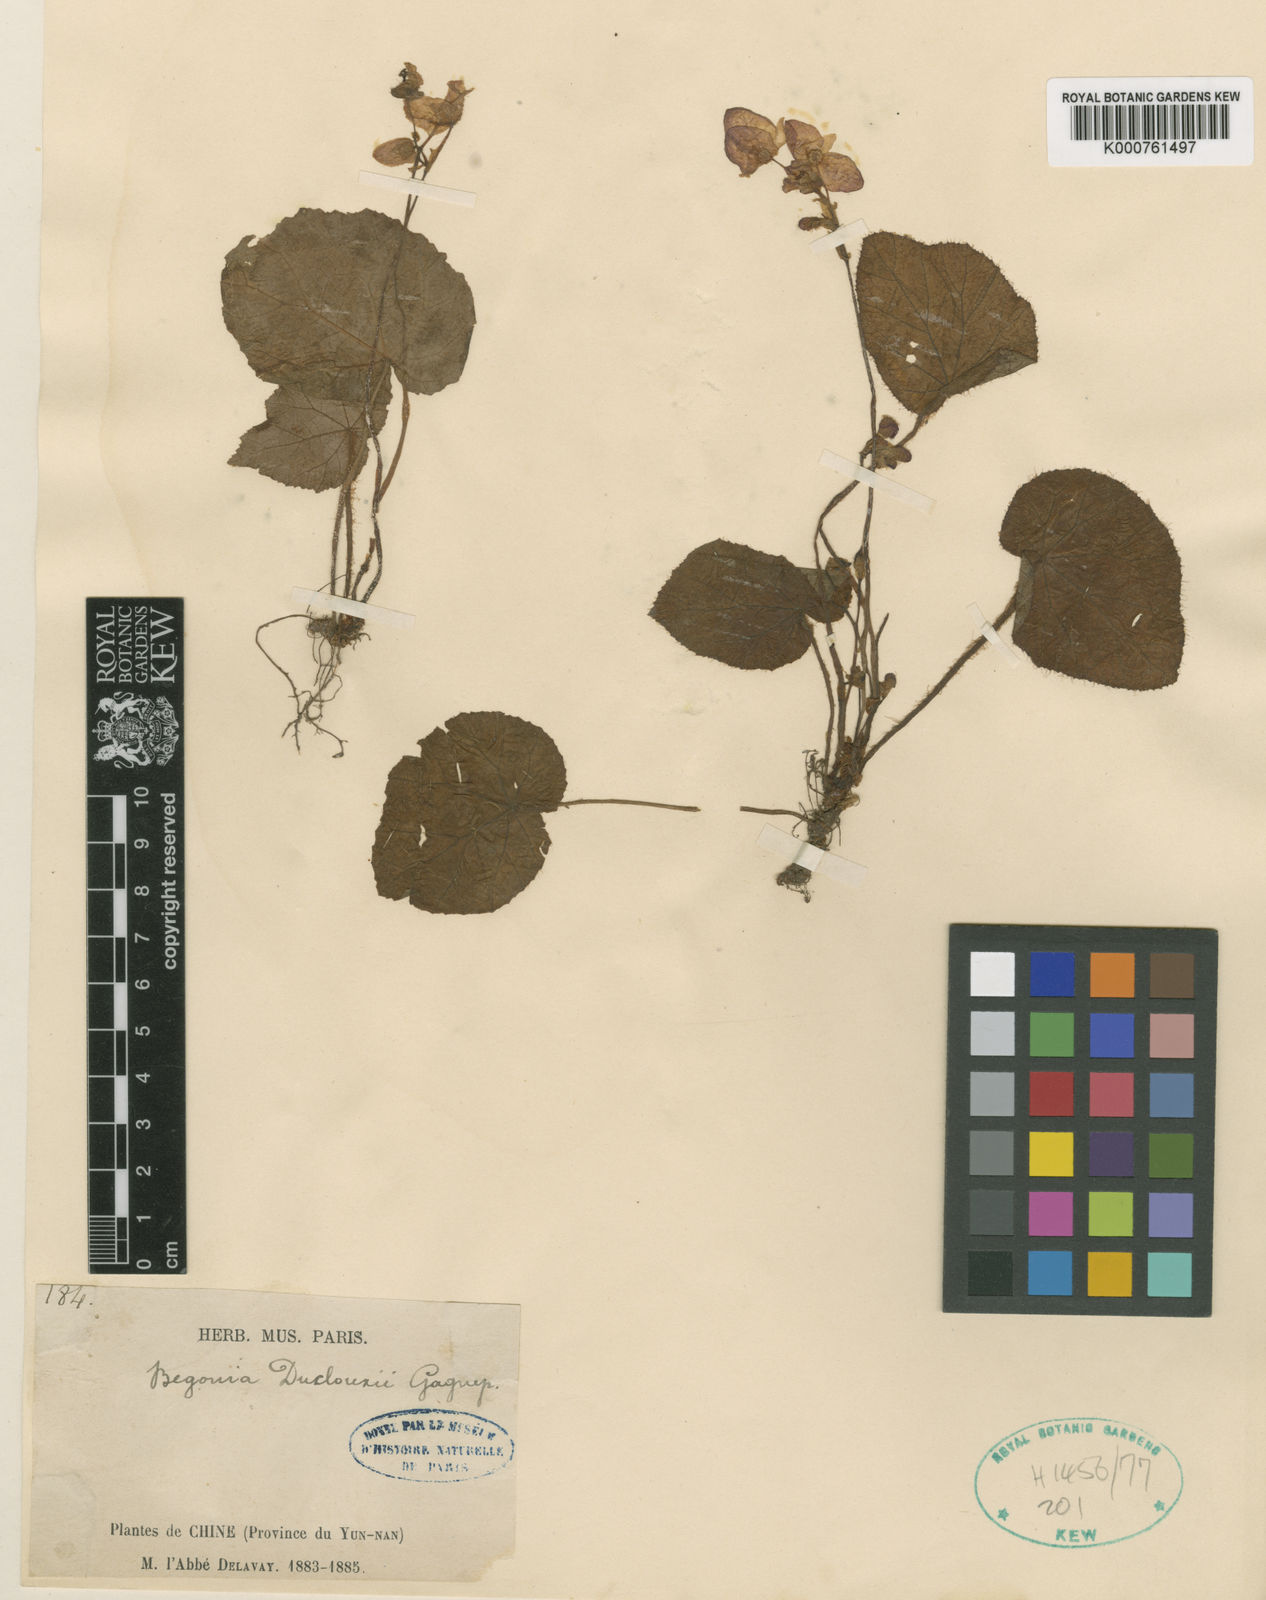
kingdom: Plantae
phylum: Tracheophyta
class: Magnoliopsida
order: Cucurbitales
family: Begoniaceae
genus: Begonia
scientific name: Begonia duclouxii
